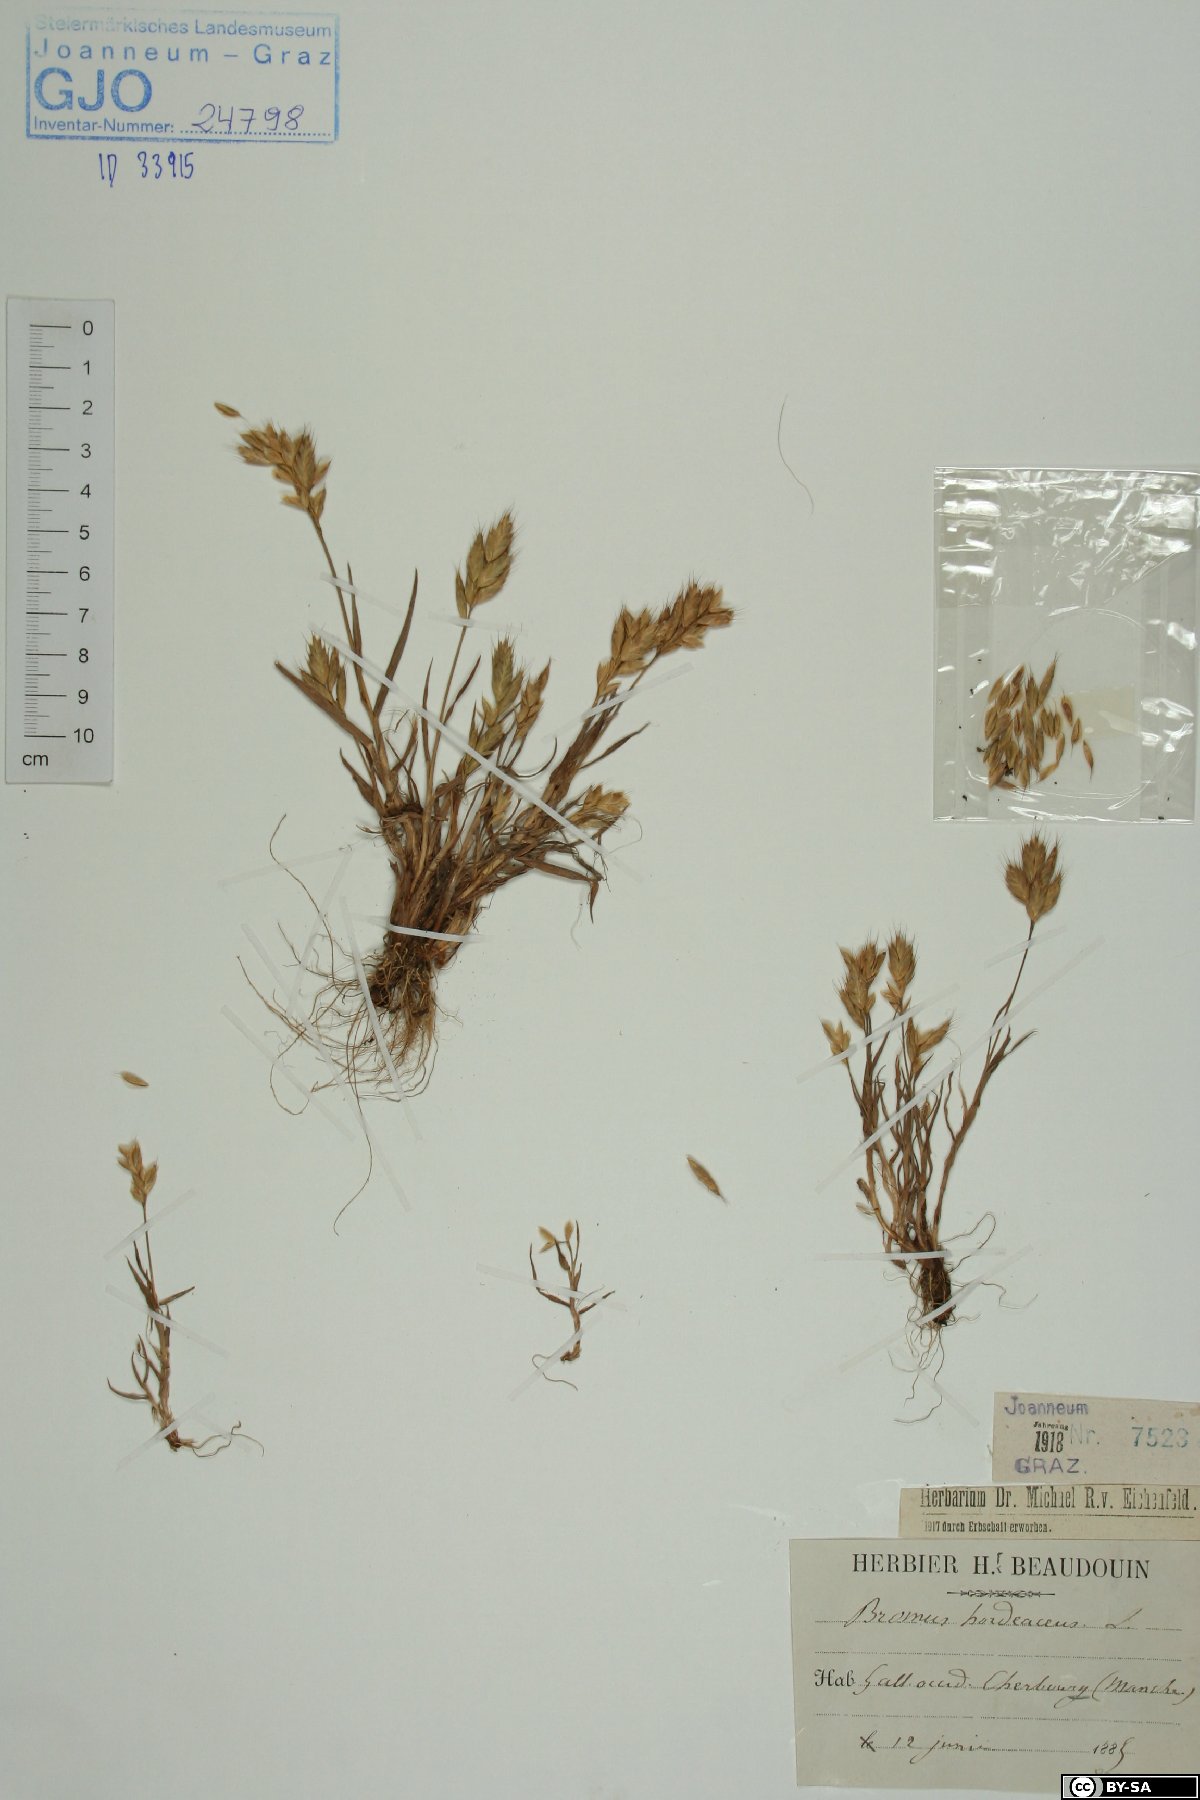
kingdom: Plantae
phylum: Tracheophyta
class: Liliopsida
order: Poales
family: Poaceae
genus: Bromus
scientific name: Bromus hordeaceus
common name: Soft brome
